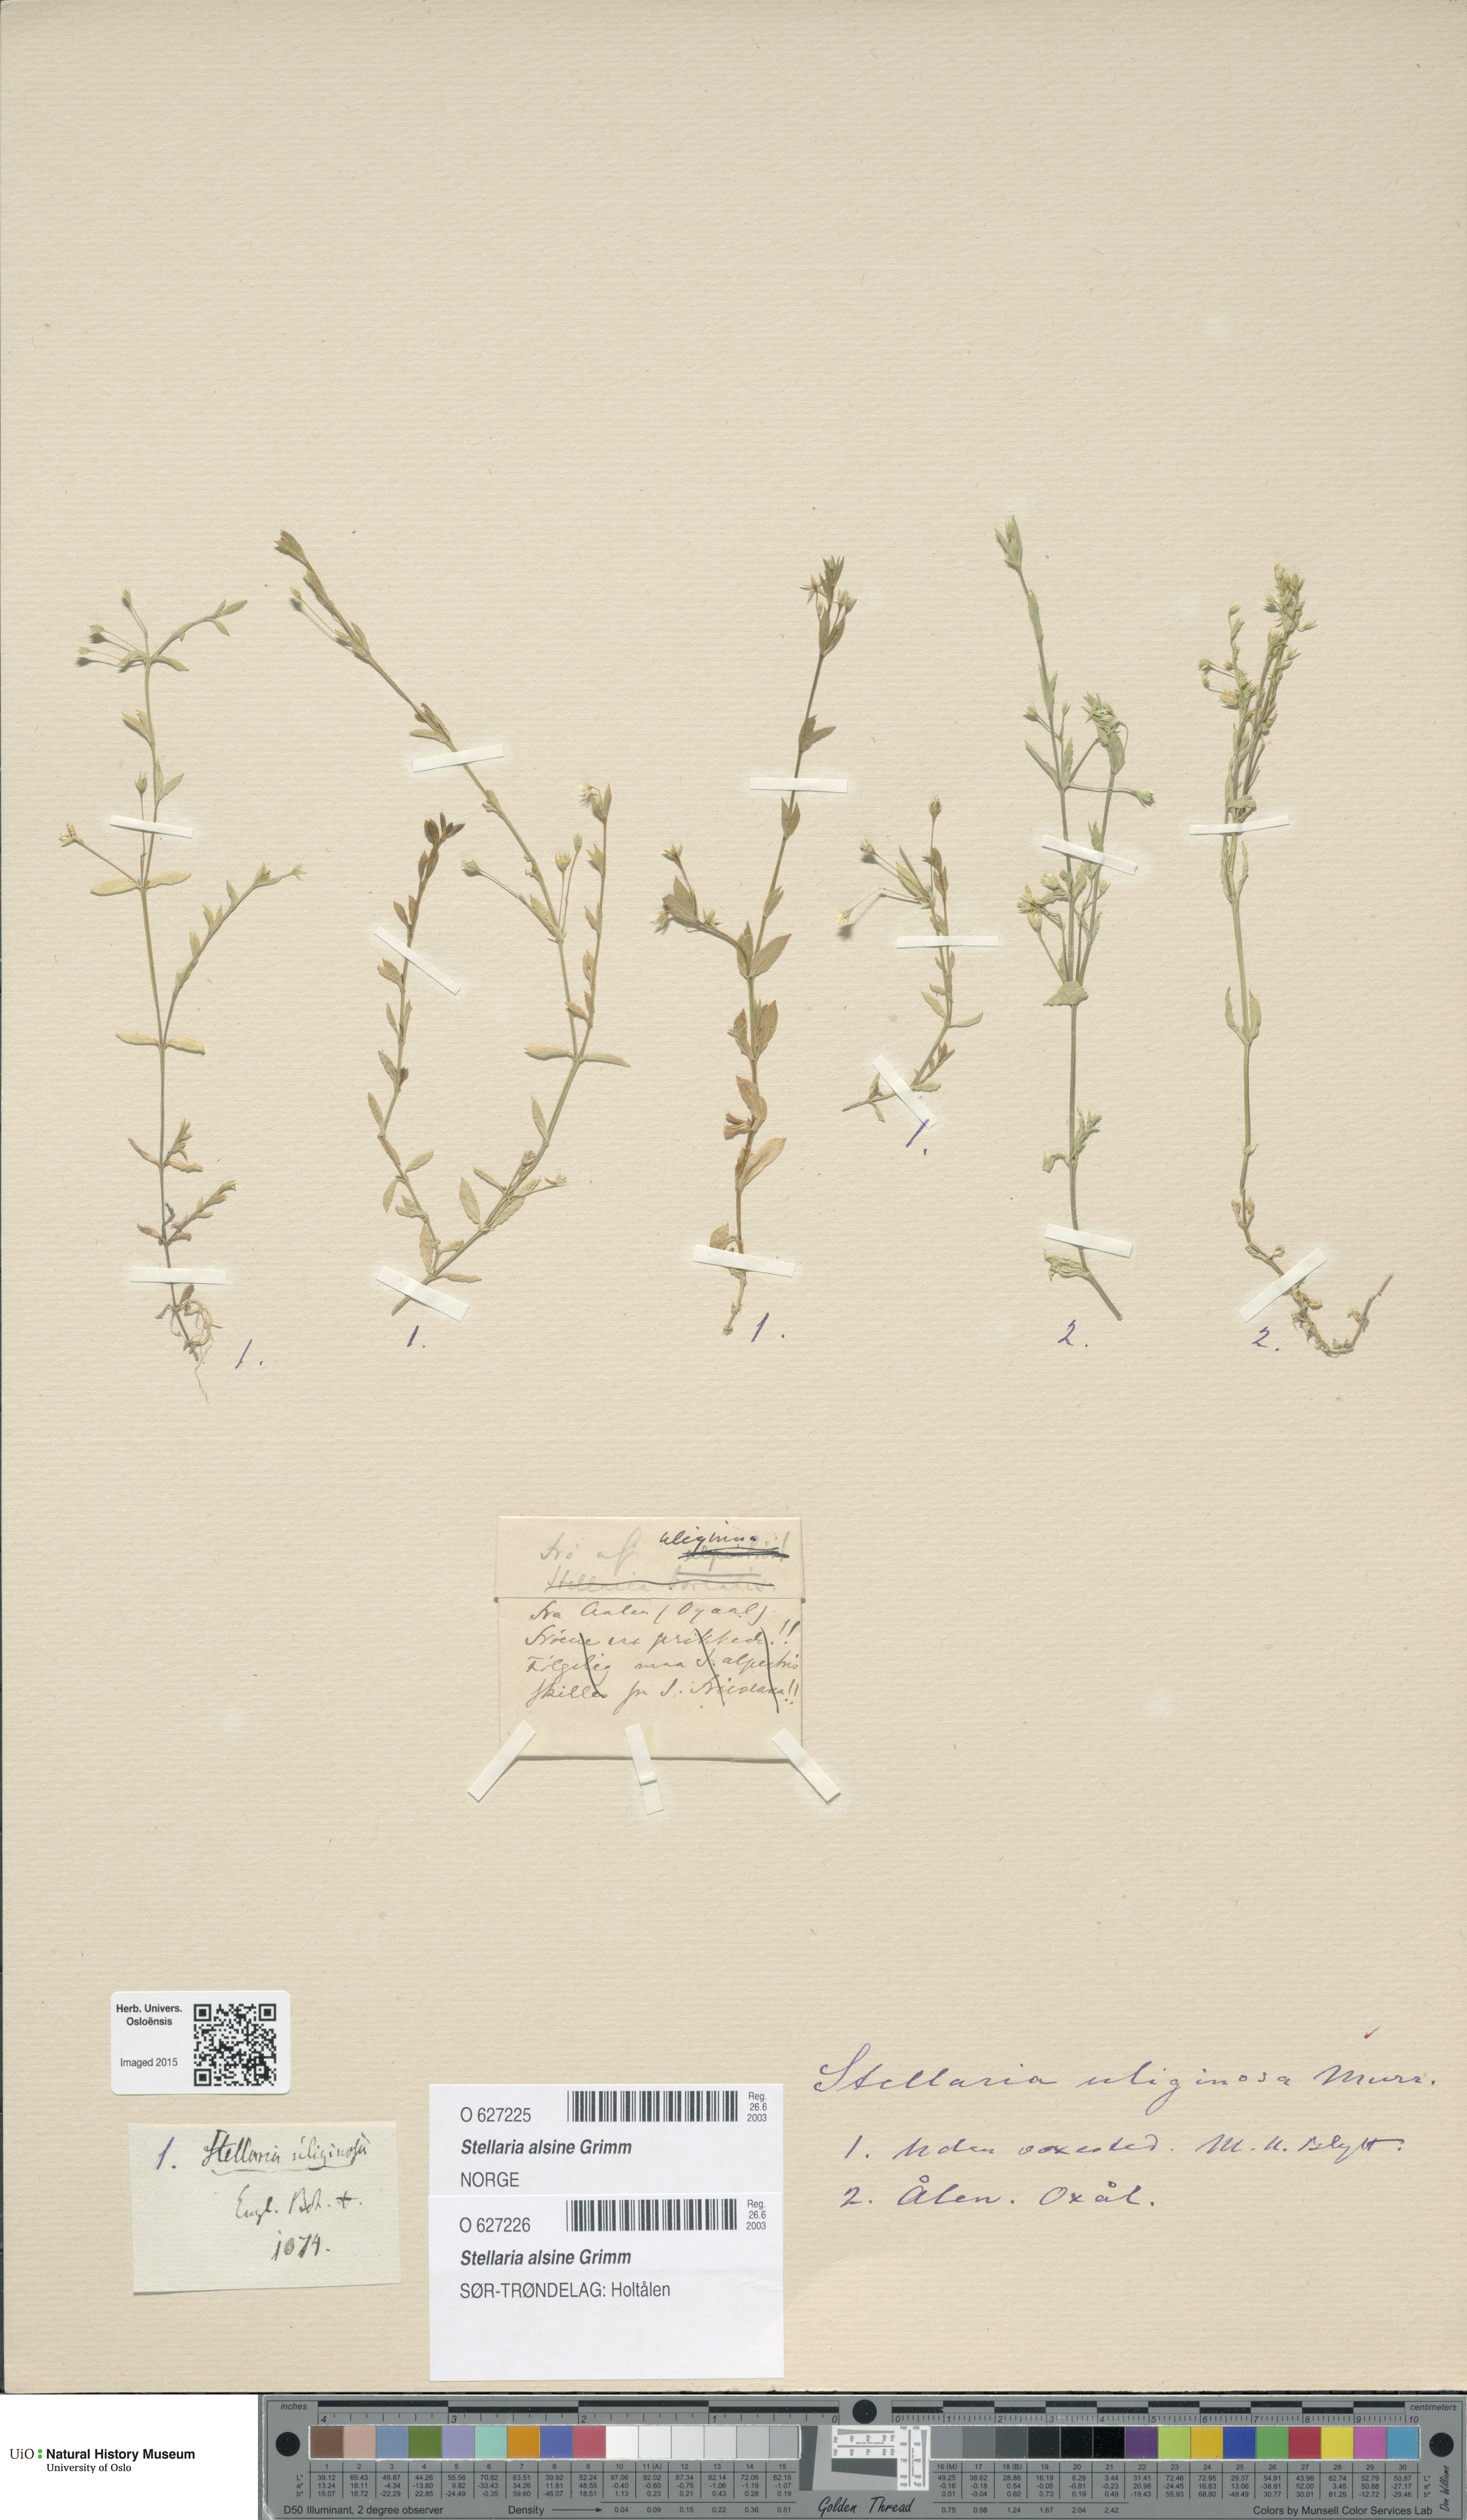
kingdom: Plantae
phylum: Tracheophyta
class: Magnoliopsida
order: Caryophyllales
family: Caryophyllaceae
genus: Stellaria
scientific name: Stellaria alsine
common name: Bog stitchwort
